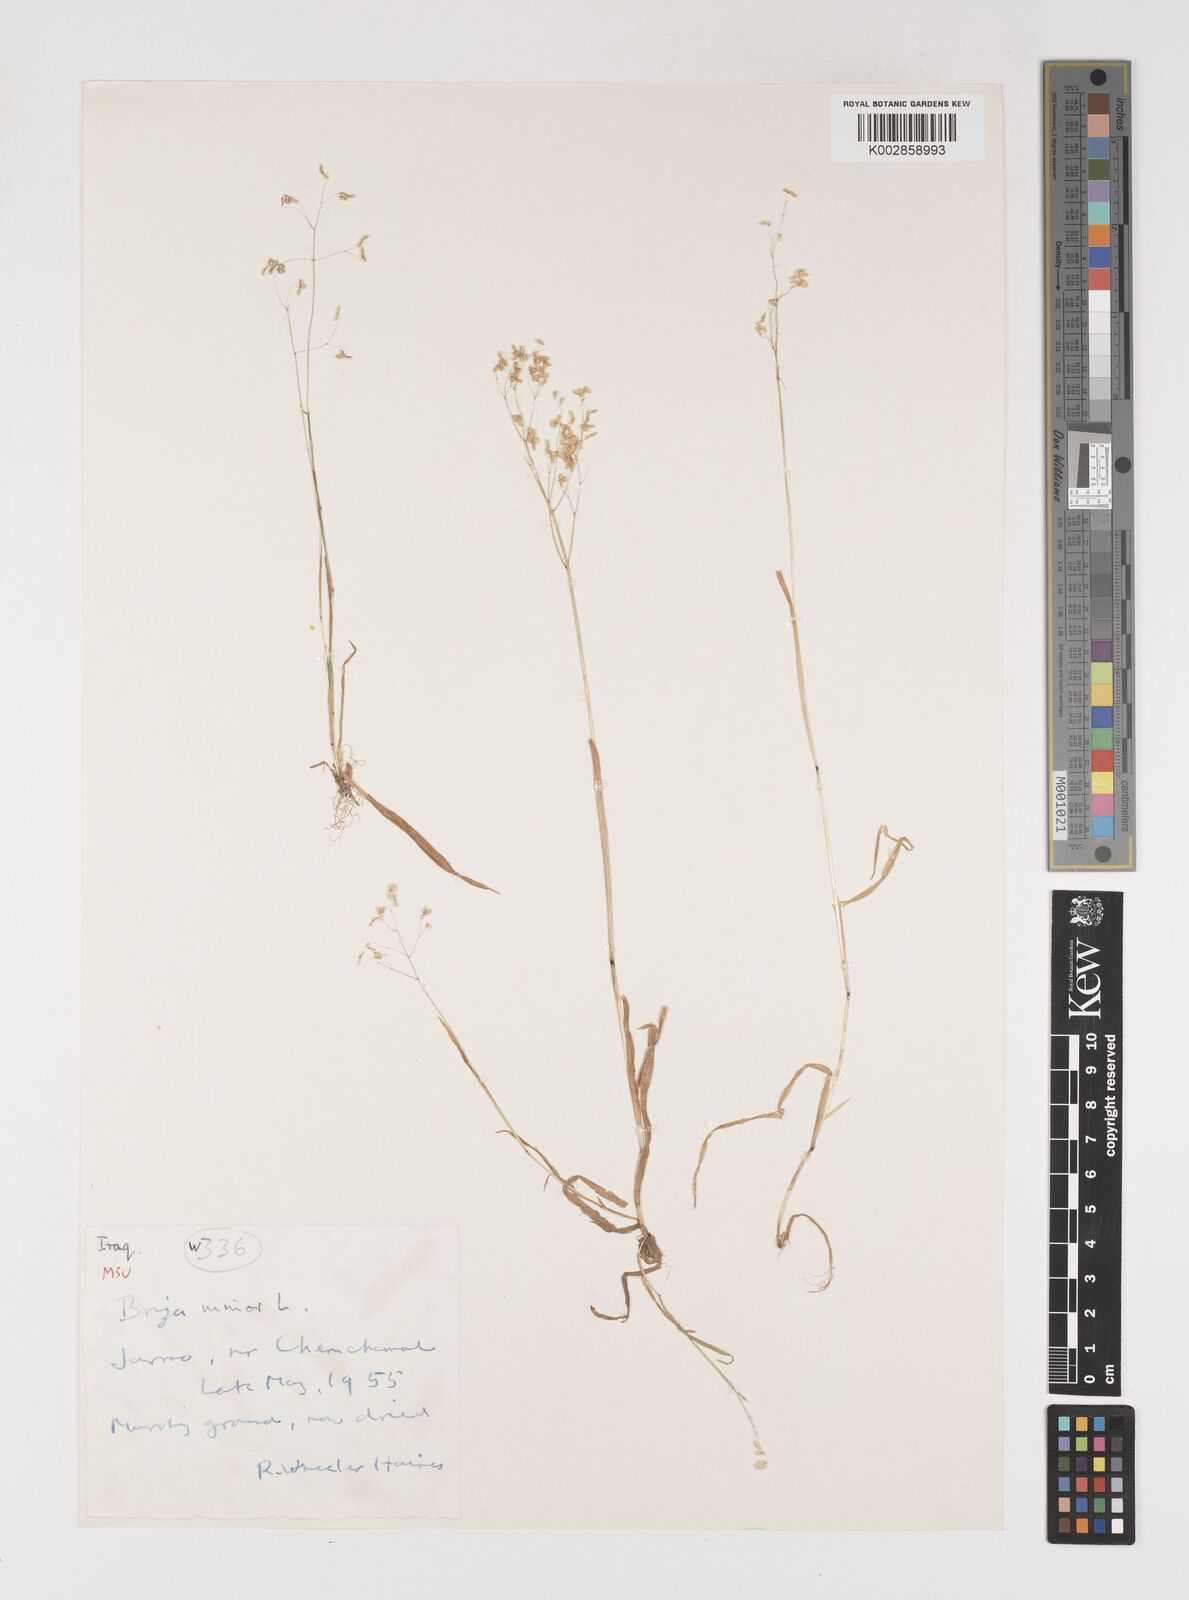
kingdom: Plantae
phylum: Tracheophyta
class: Liliopsida
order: Poales
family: Poaceae
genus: Briza
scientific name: Briza minor
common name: Lesser quaking-grass
